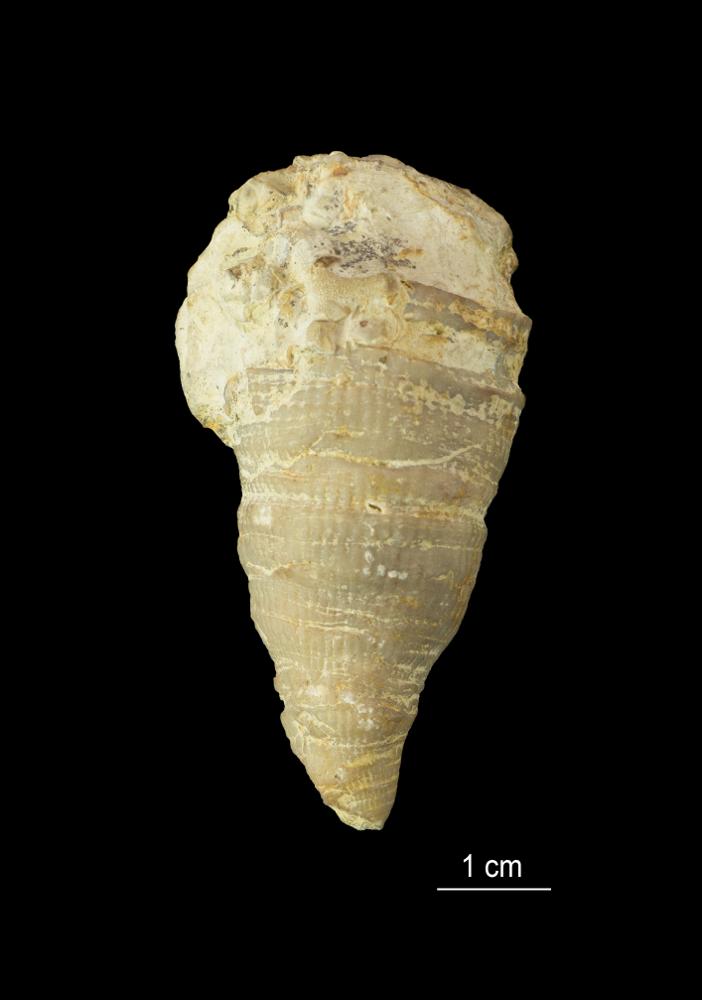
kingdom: Animalia
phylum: Cnidaria
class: Anthozoa
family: Streptelasmatidae
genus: Streptelasma
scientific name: Streptelasma
